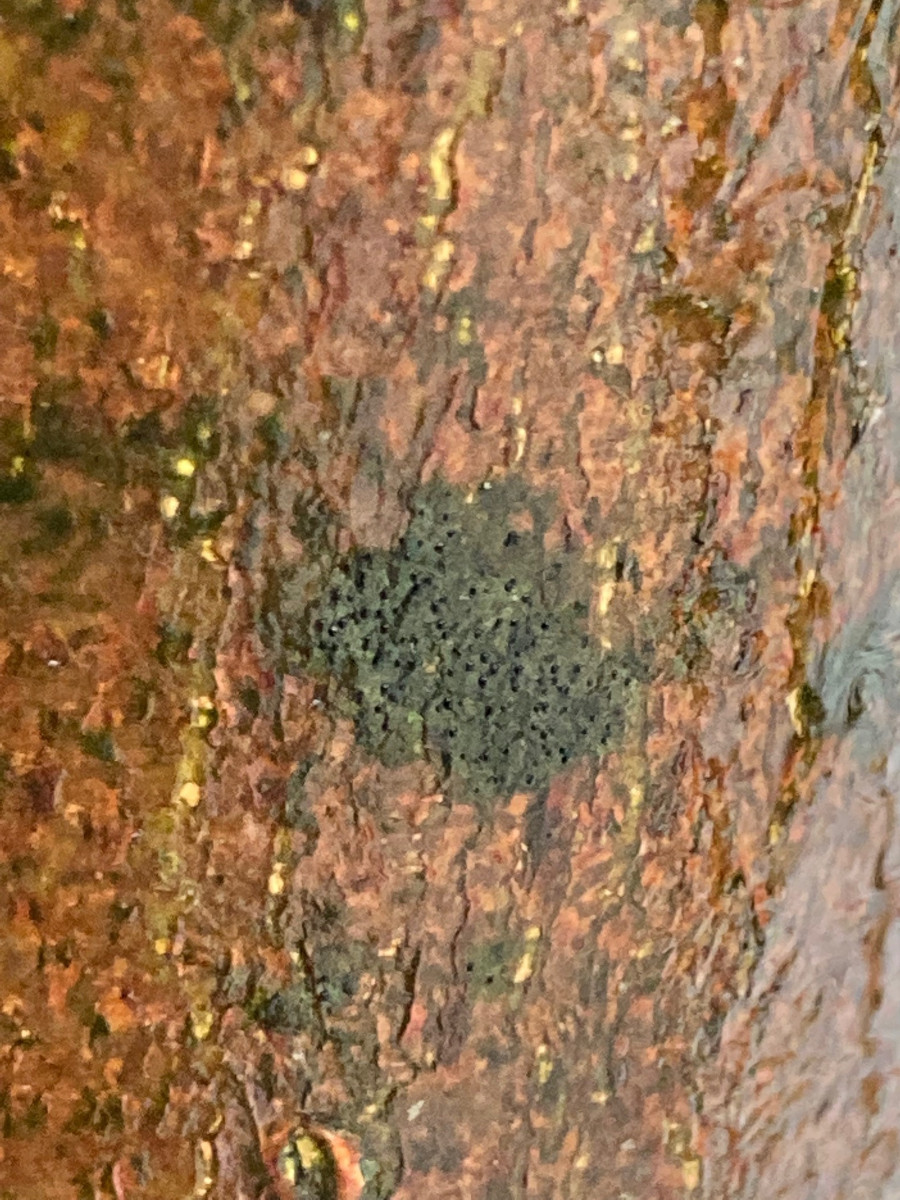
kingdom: Fungi
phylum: Ascomycota
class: Lecanoromycetes
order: Ostropales
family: Porinaceae
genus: Pseudosagedia
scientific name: Pseudosagedia aenea
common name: grønlig porina
